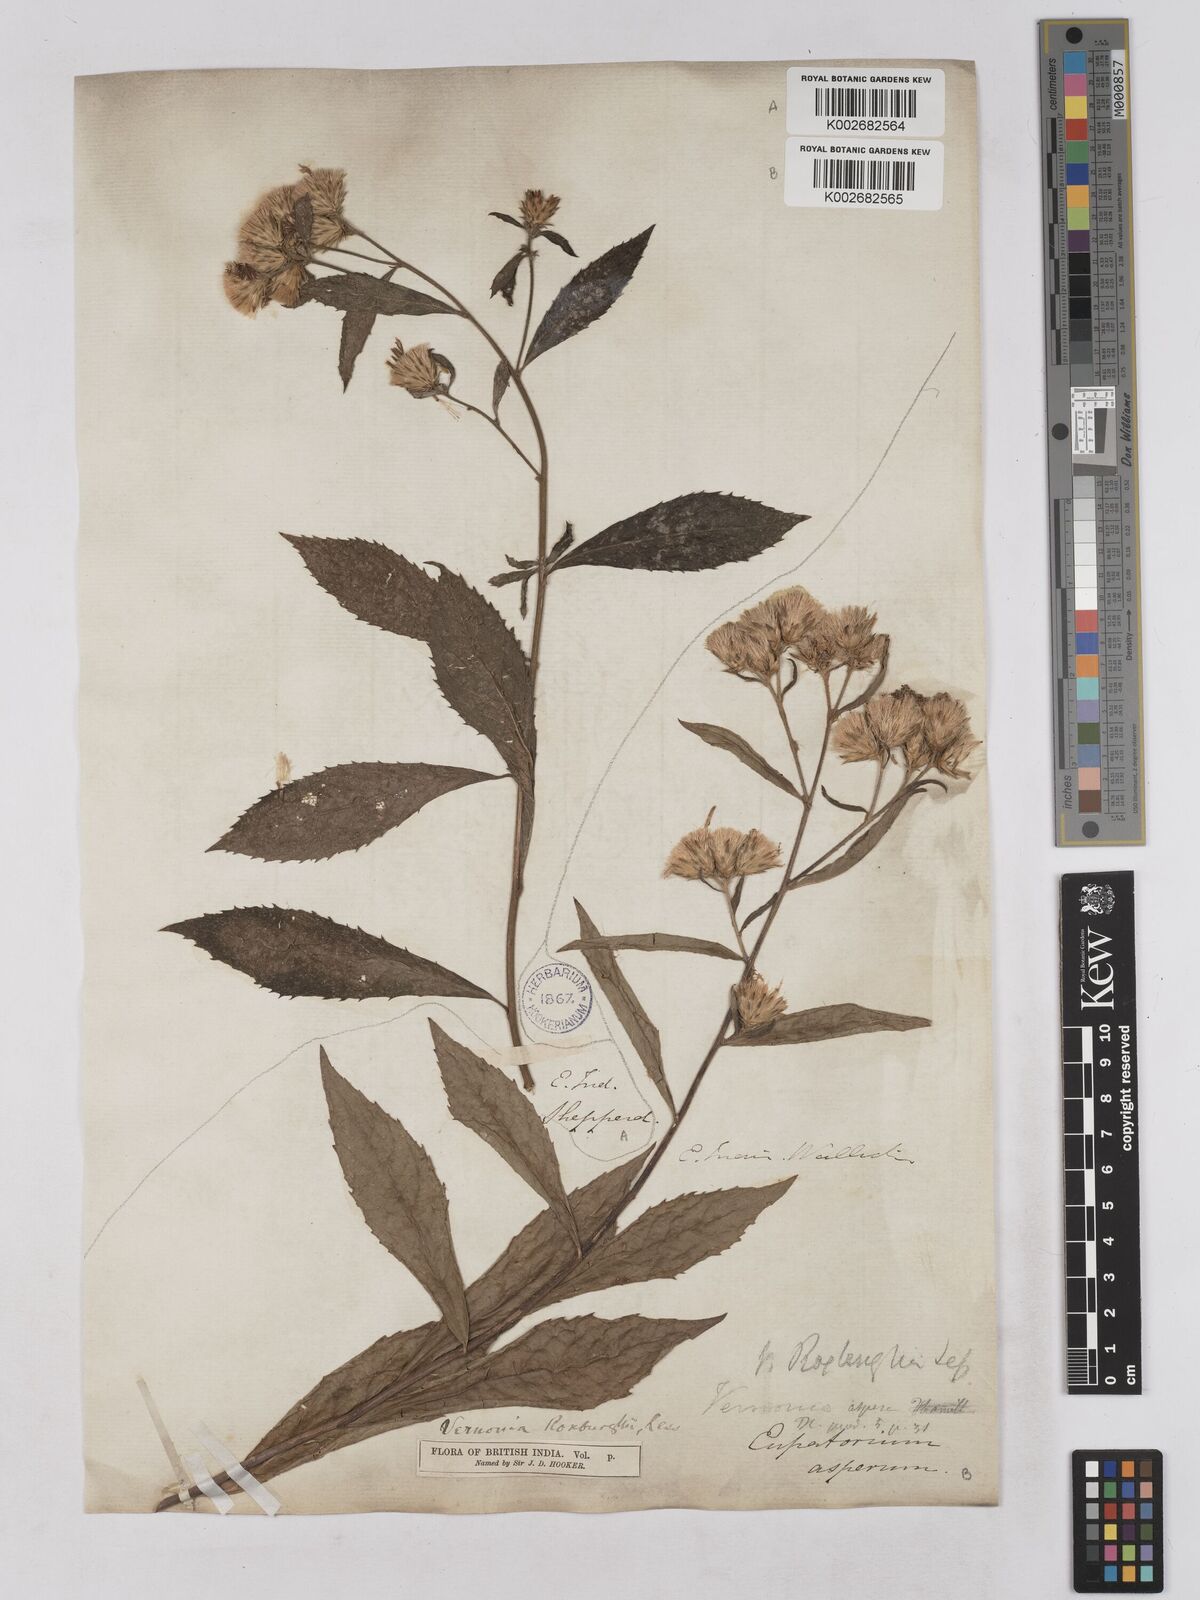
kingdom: Plantae
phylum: Tracheophyta
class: Magnoliopsida
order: Asterales
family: Asteraceae
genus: Acilepis
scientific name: Acilepis aspera
